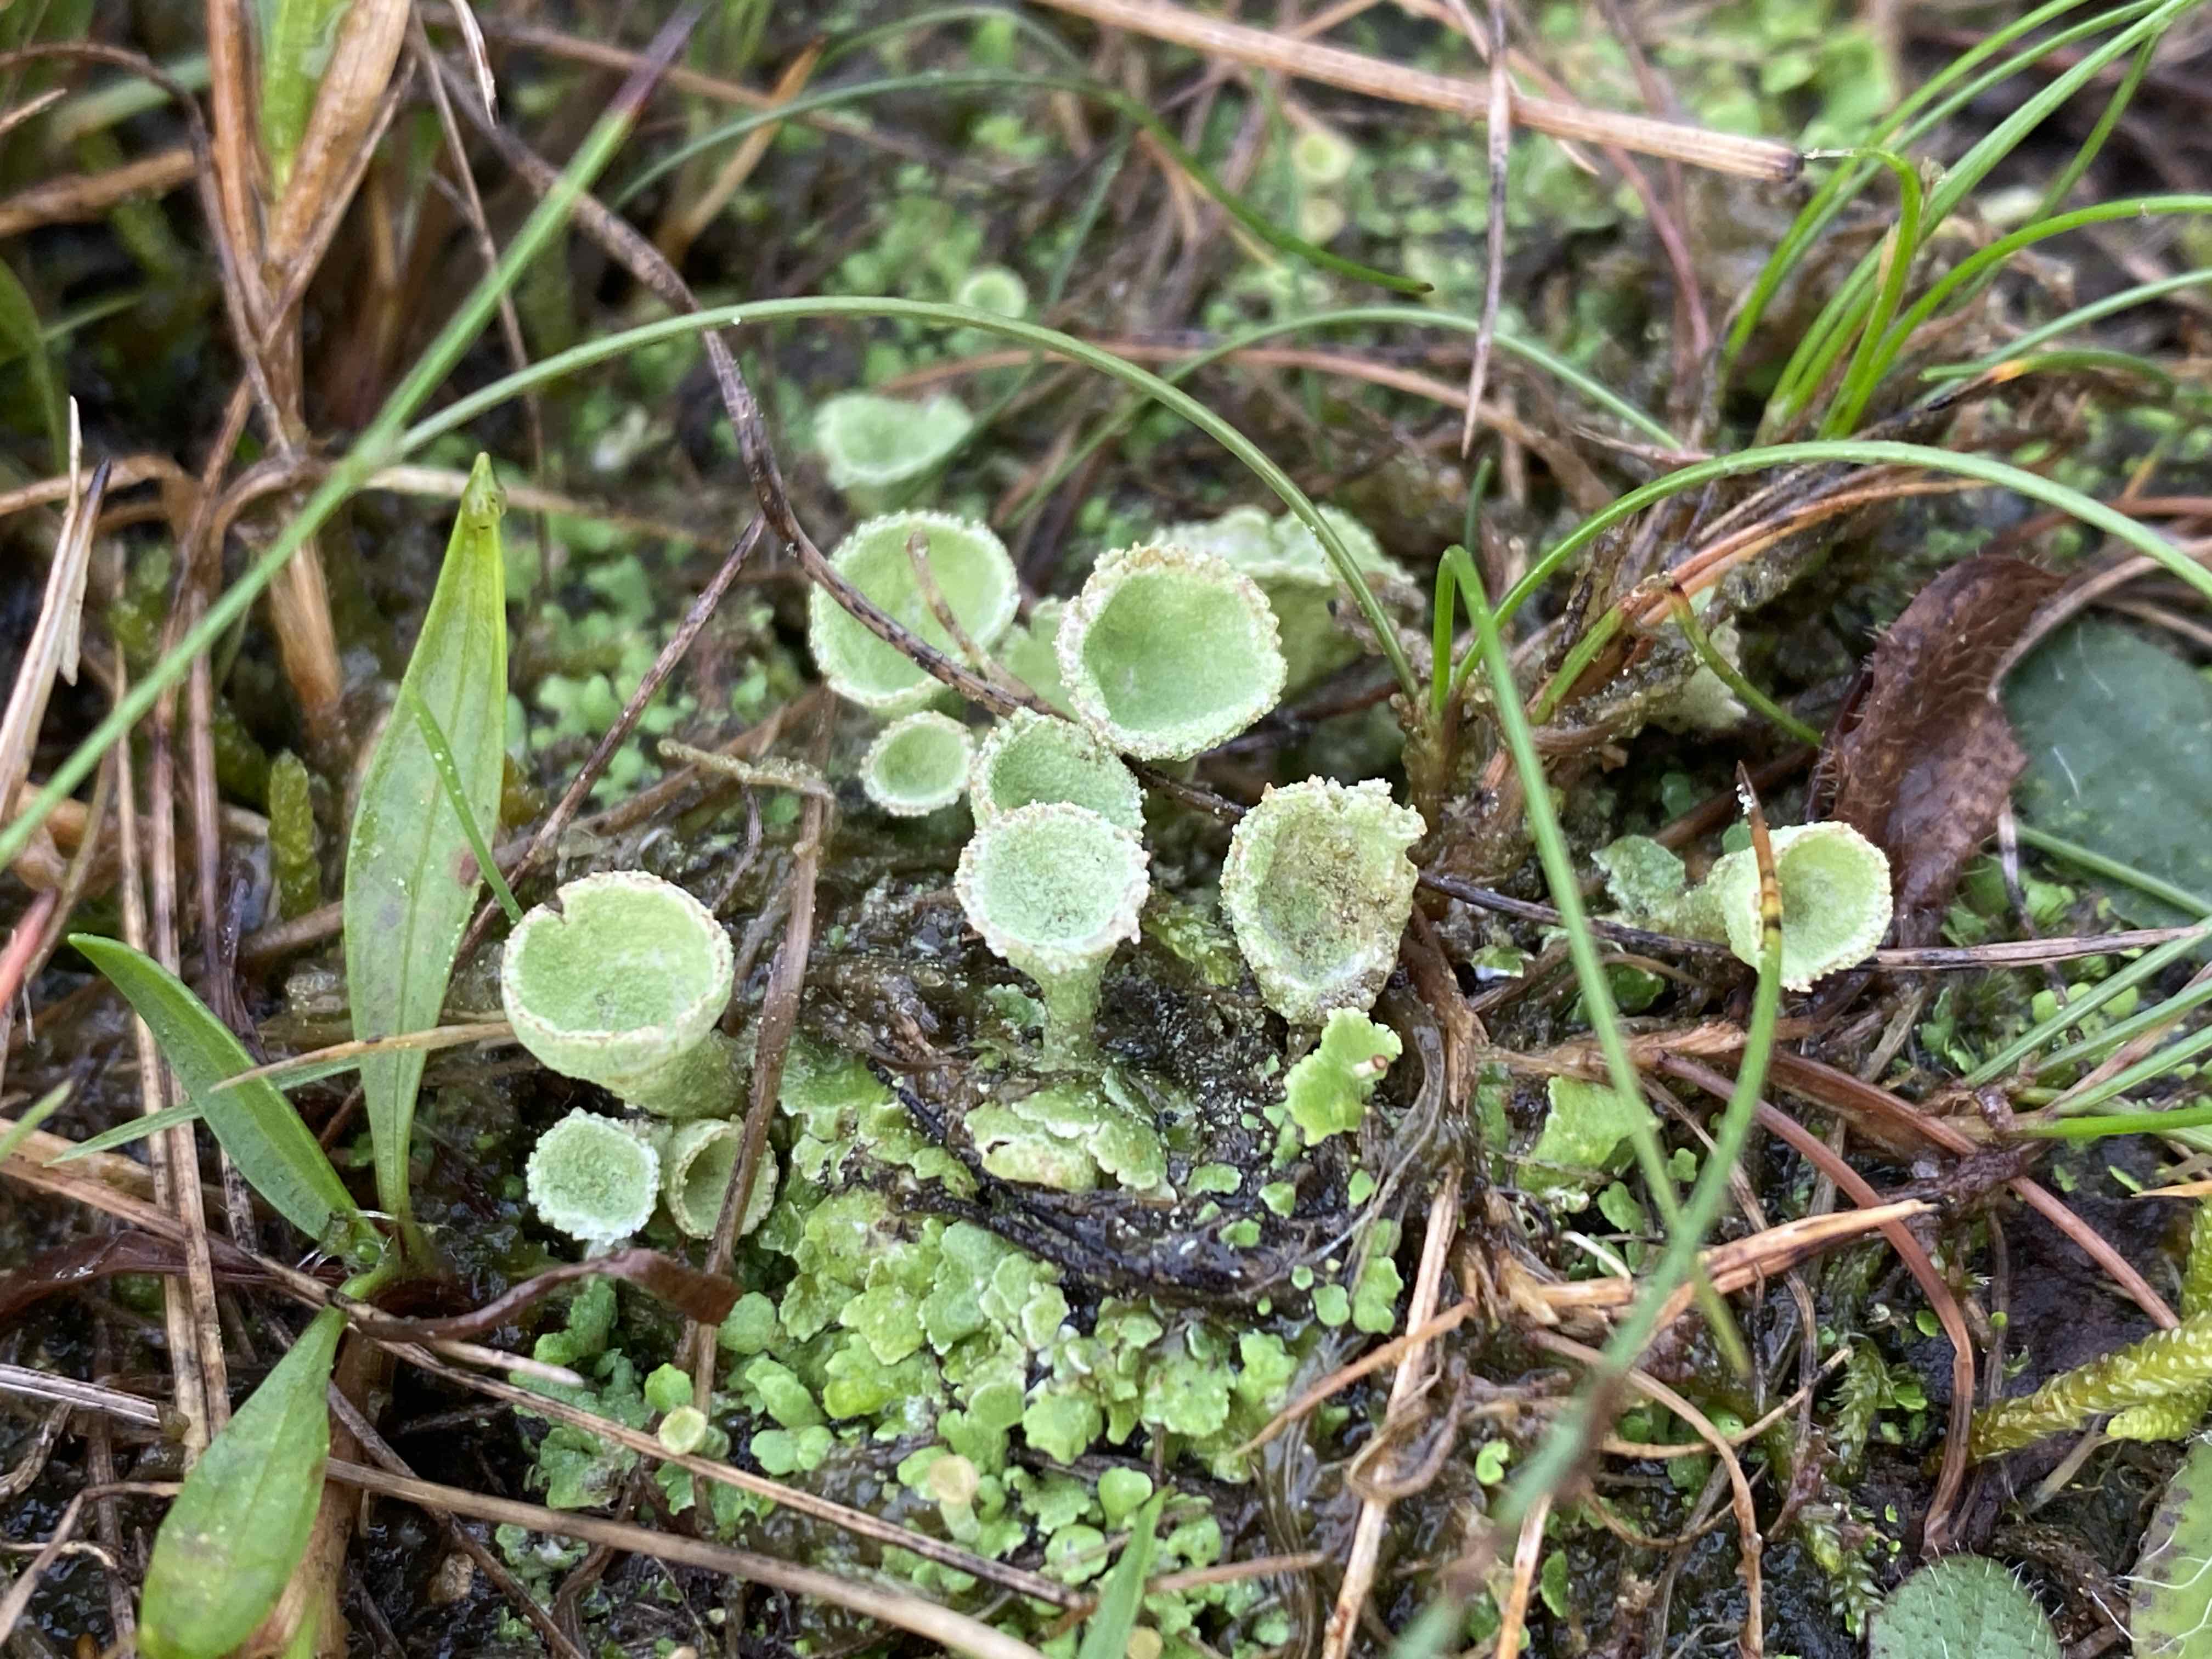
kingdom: Fungi
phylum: Ascomycota
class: Lecanoromycetes
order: Lecanorales
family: Cladoniaceae
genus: Cladonia
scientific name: Cladonia humilis
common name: lav bægerlav
